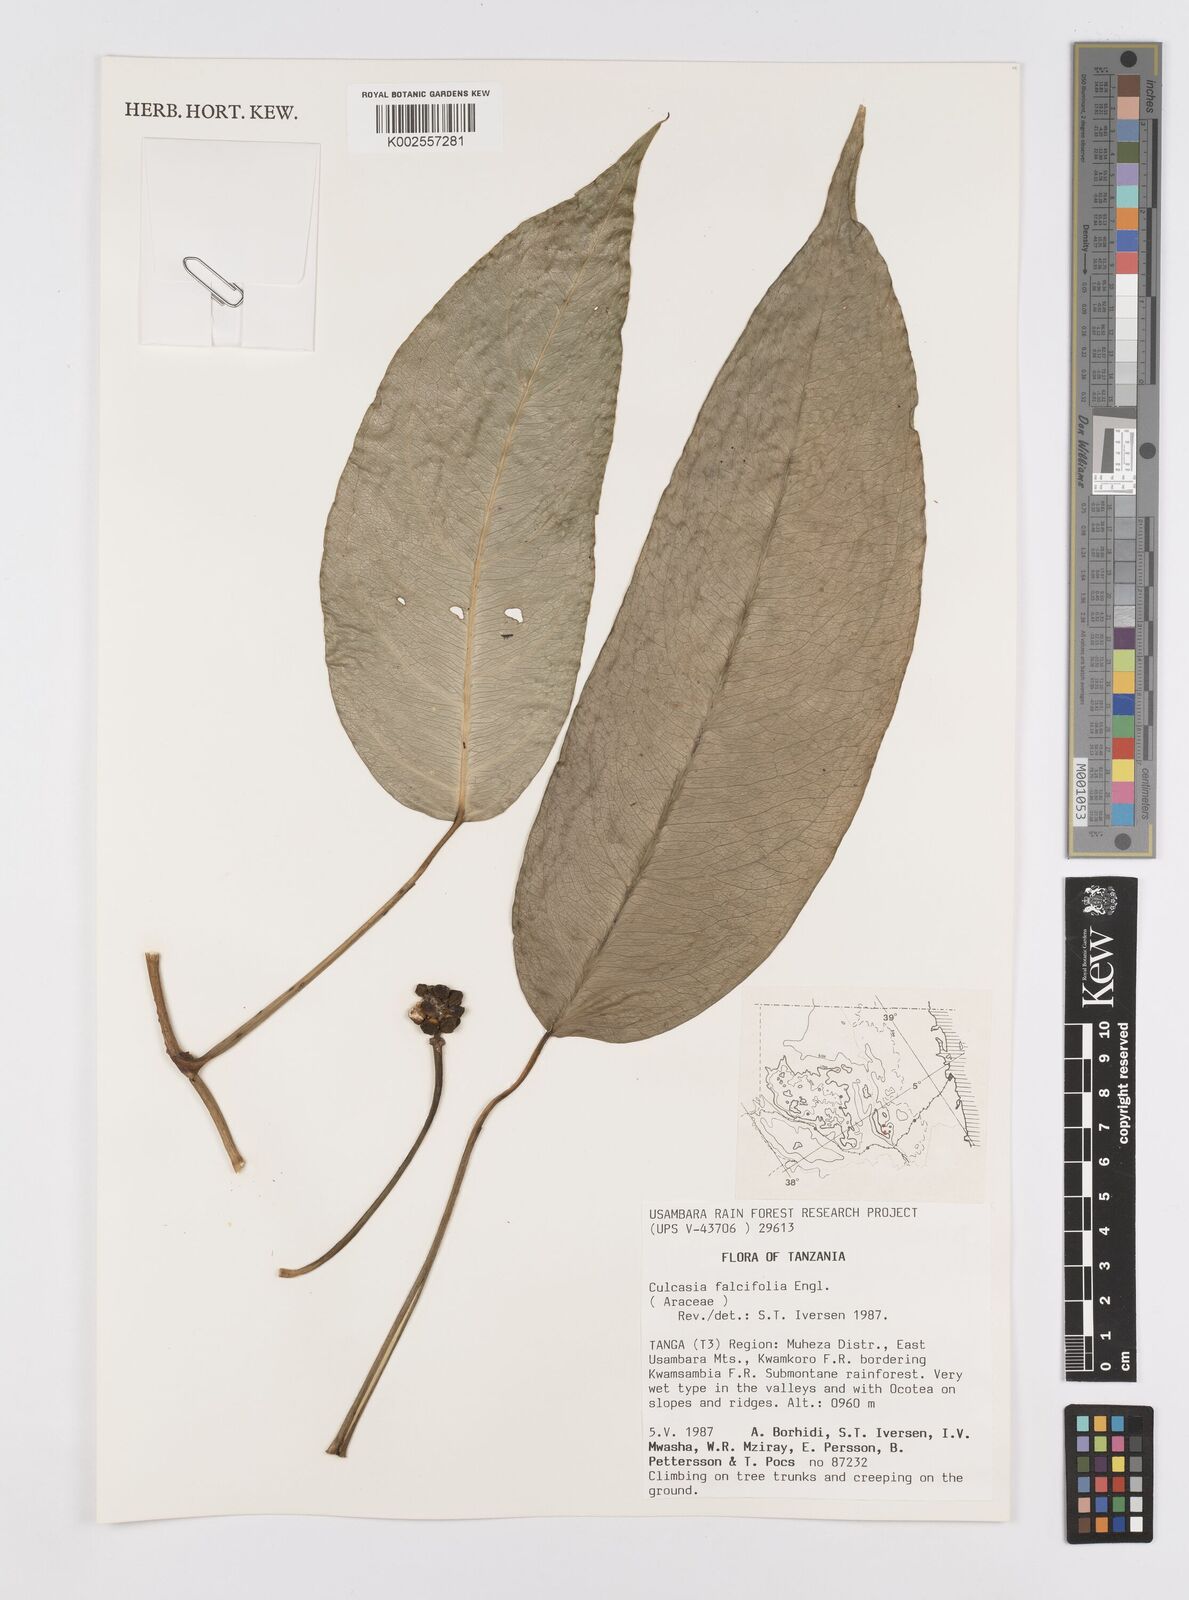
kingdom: Plantae
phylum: Tracheophyta
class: Liliopsida
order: Alismatales
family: Araceae
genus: Culcasia
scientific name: Culcasia falcifolia
